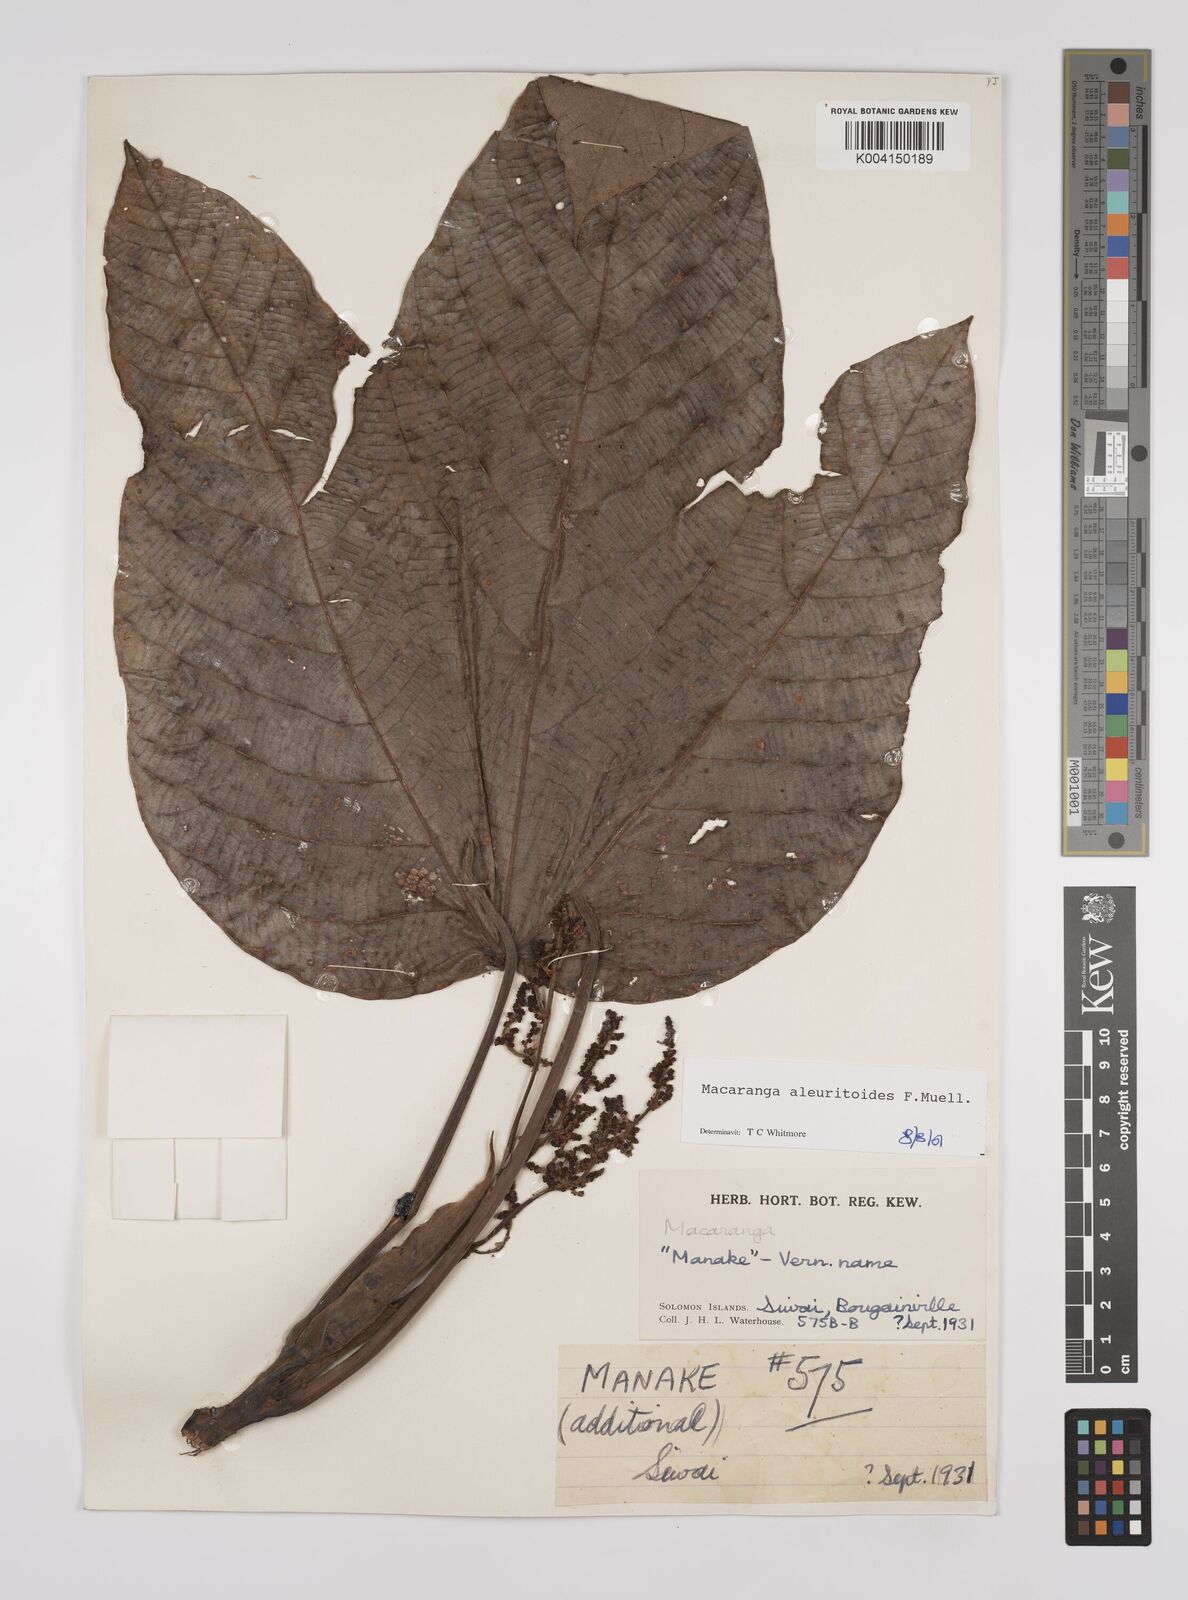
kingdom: Plantae
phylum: Tracheophyta
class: Magnoliopsida
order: Malpighiales
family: Euphorbiaceae
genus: Macaranga
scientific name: Macaranga aleuritoides
